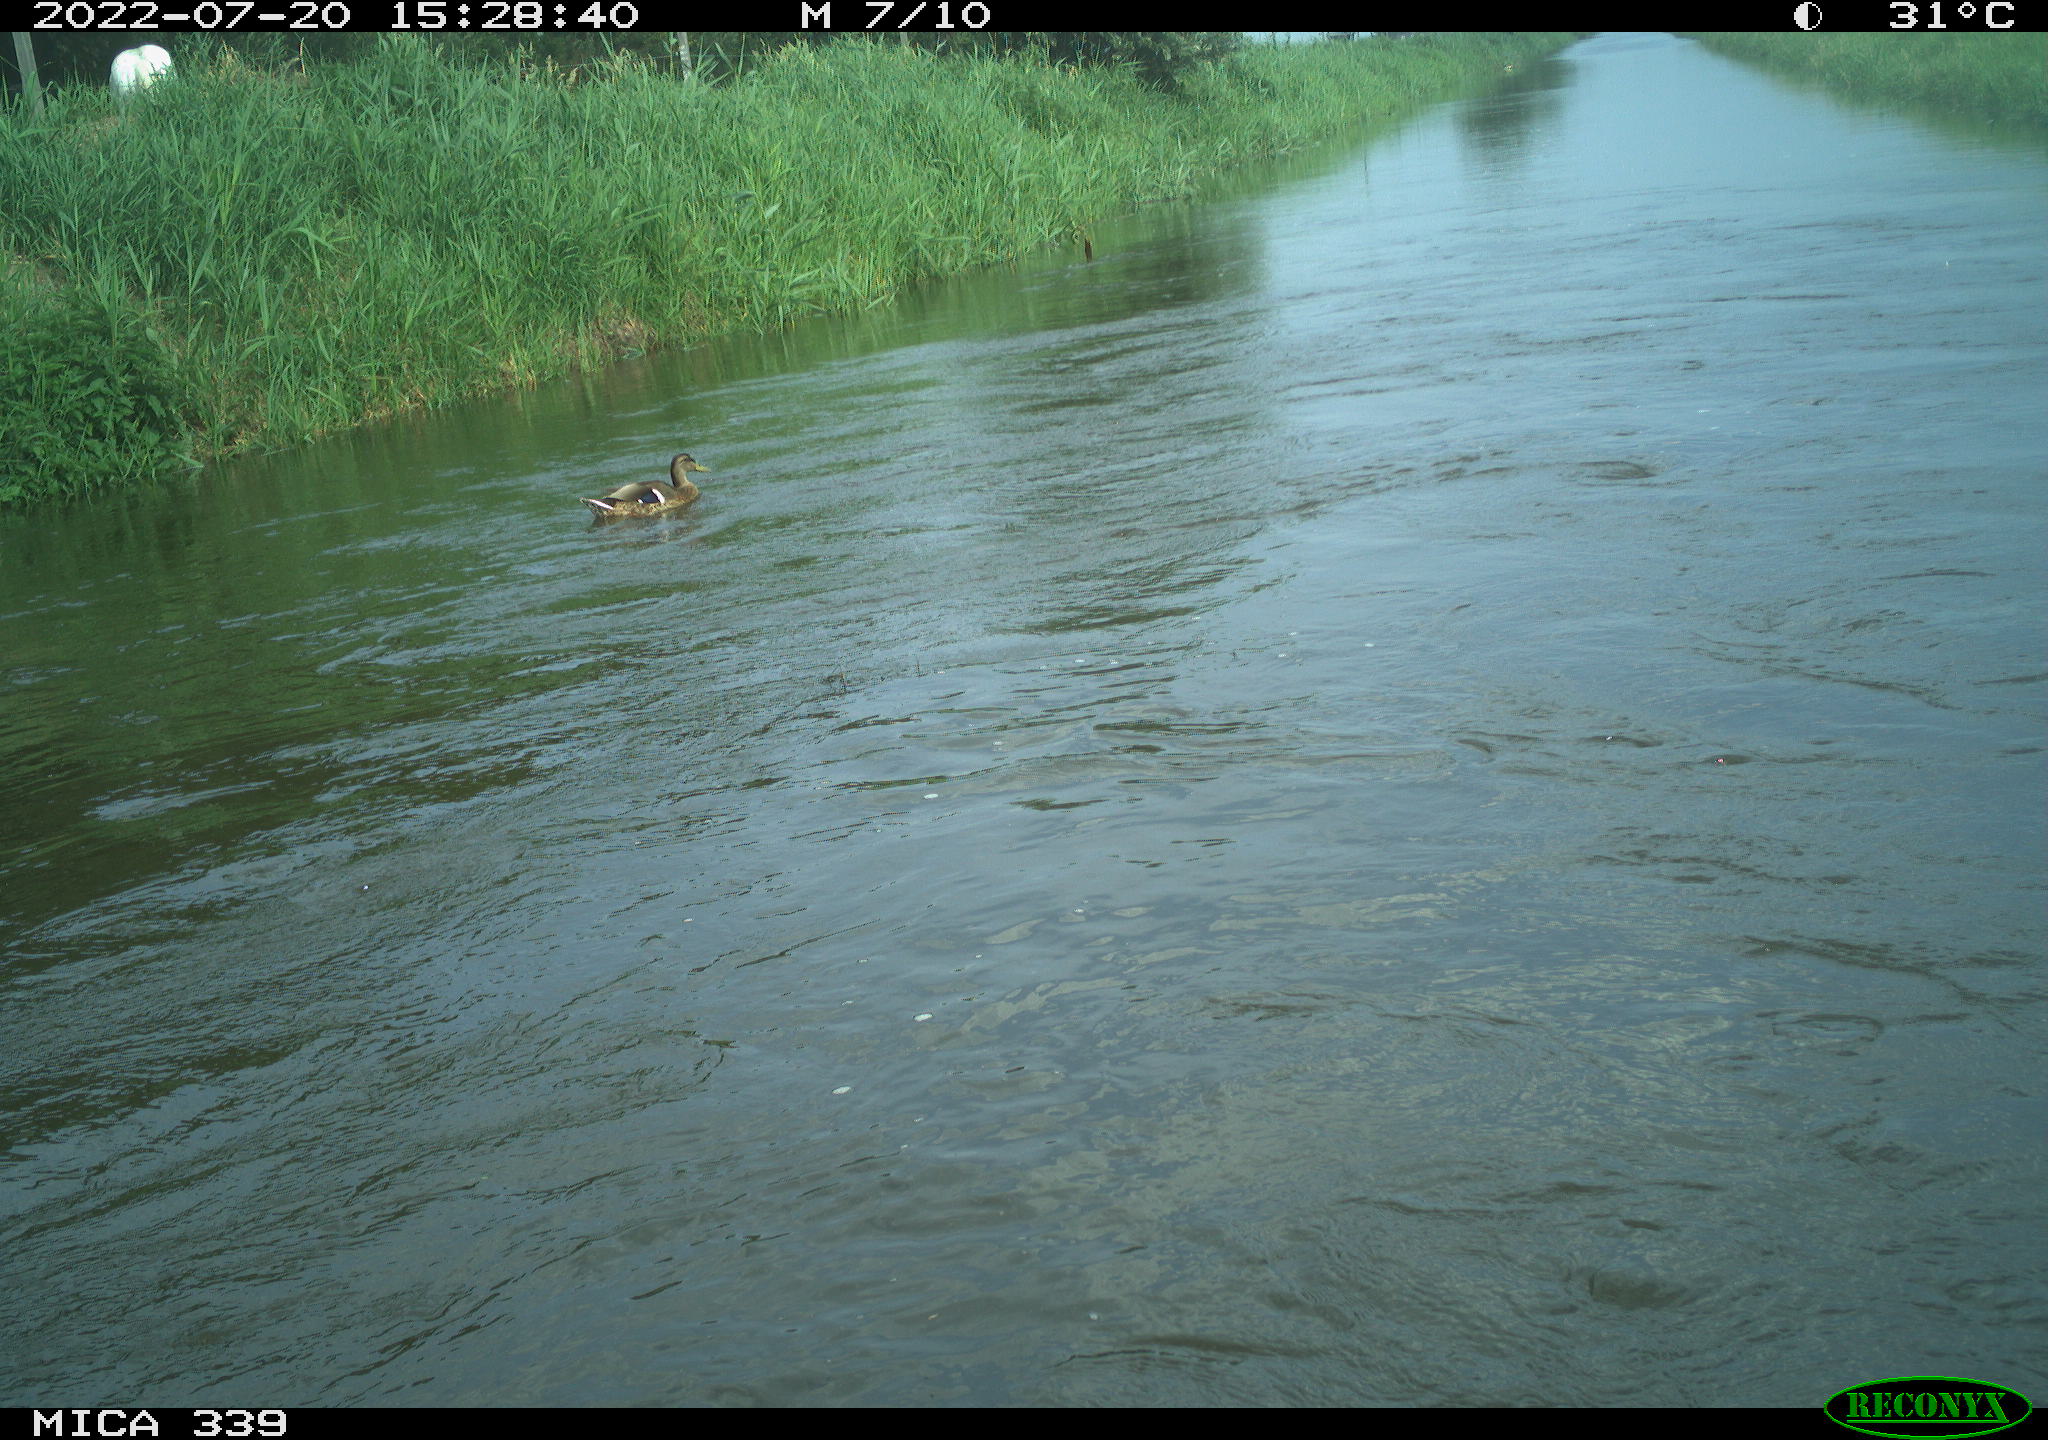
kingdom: Animalia
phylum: Chordata
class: Aves
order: Anseriformes
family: Anatidae
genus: Anas
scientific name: Anas platyrhynchos
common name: Mallard
